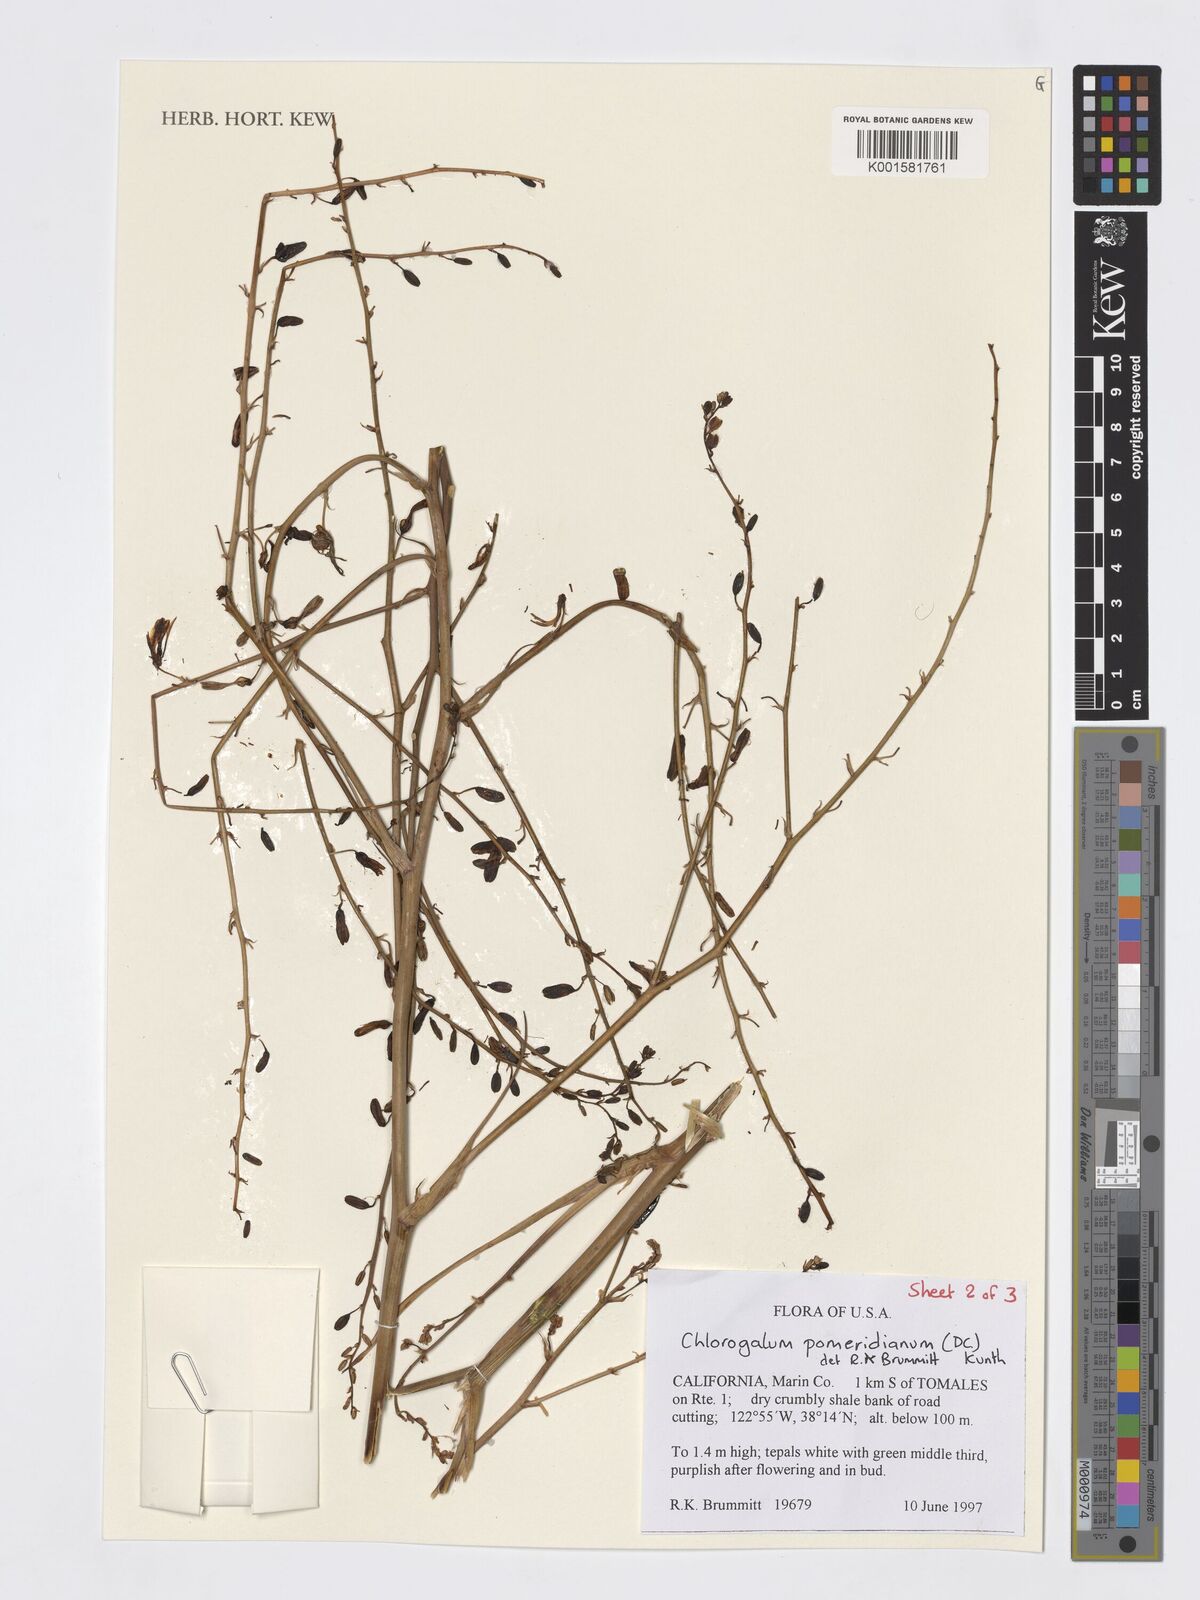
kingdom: Plantae
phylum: Tracheophyta
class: Liliopsida
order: Asparagales
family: Asparagaceae
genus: Chlorogalum
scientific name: Chlorogalum pomeridianum
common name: Amole
